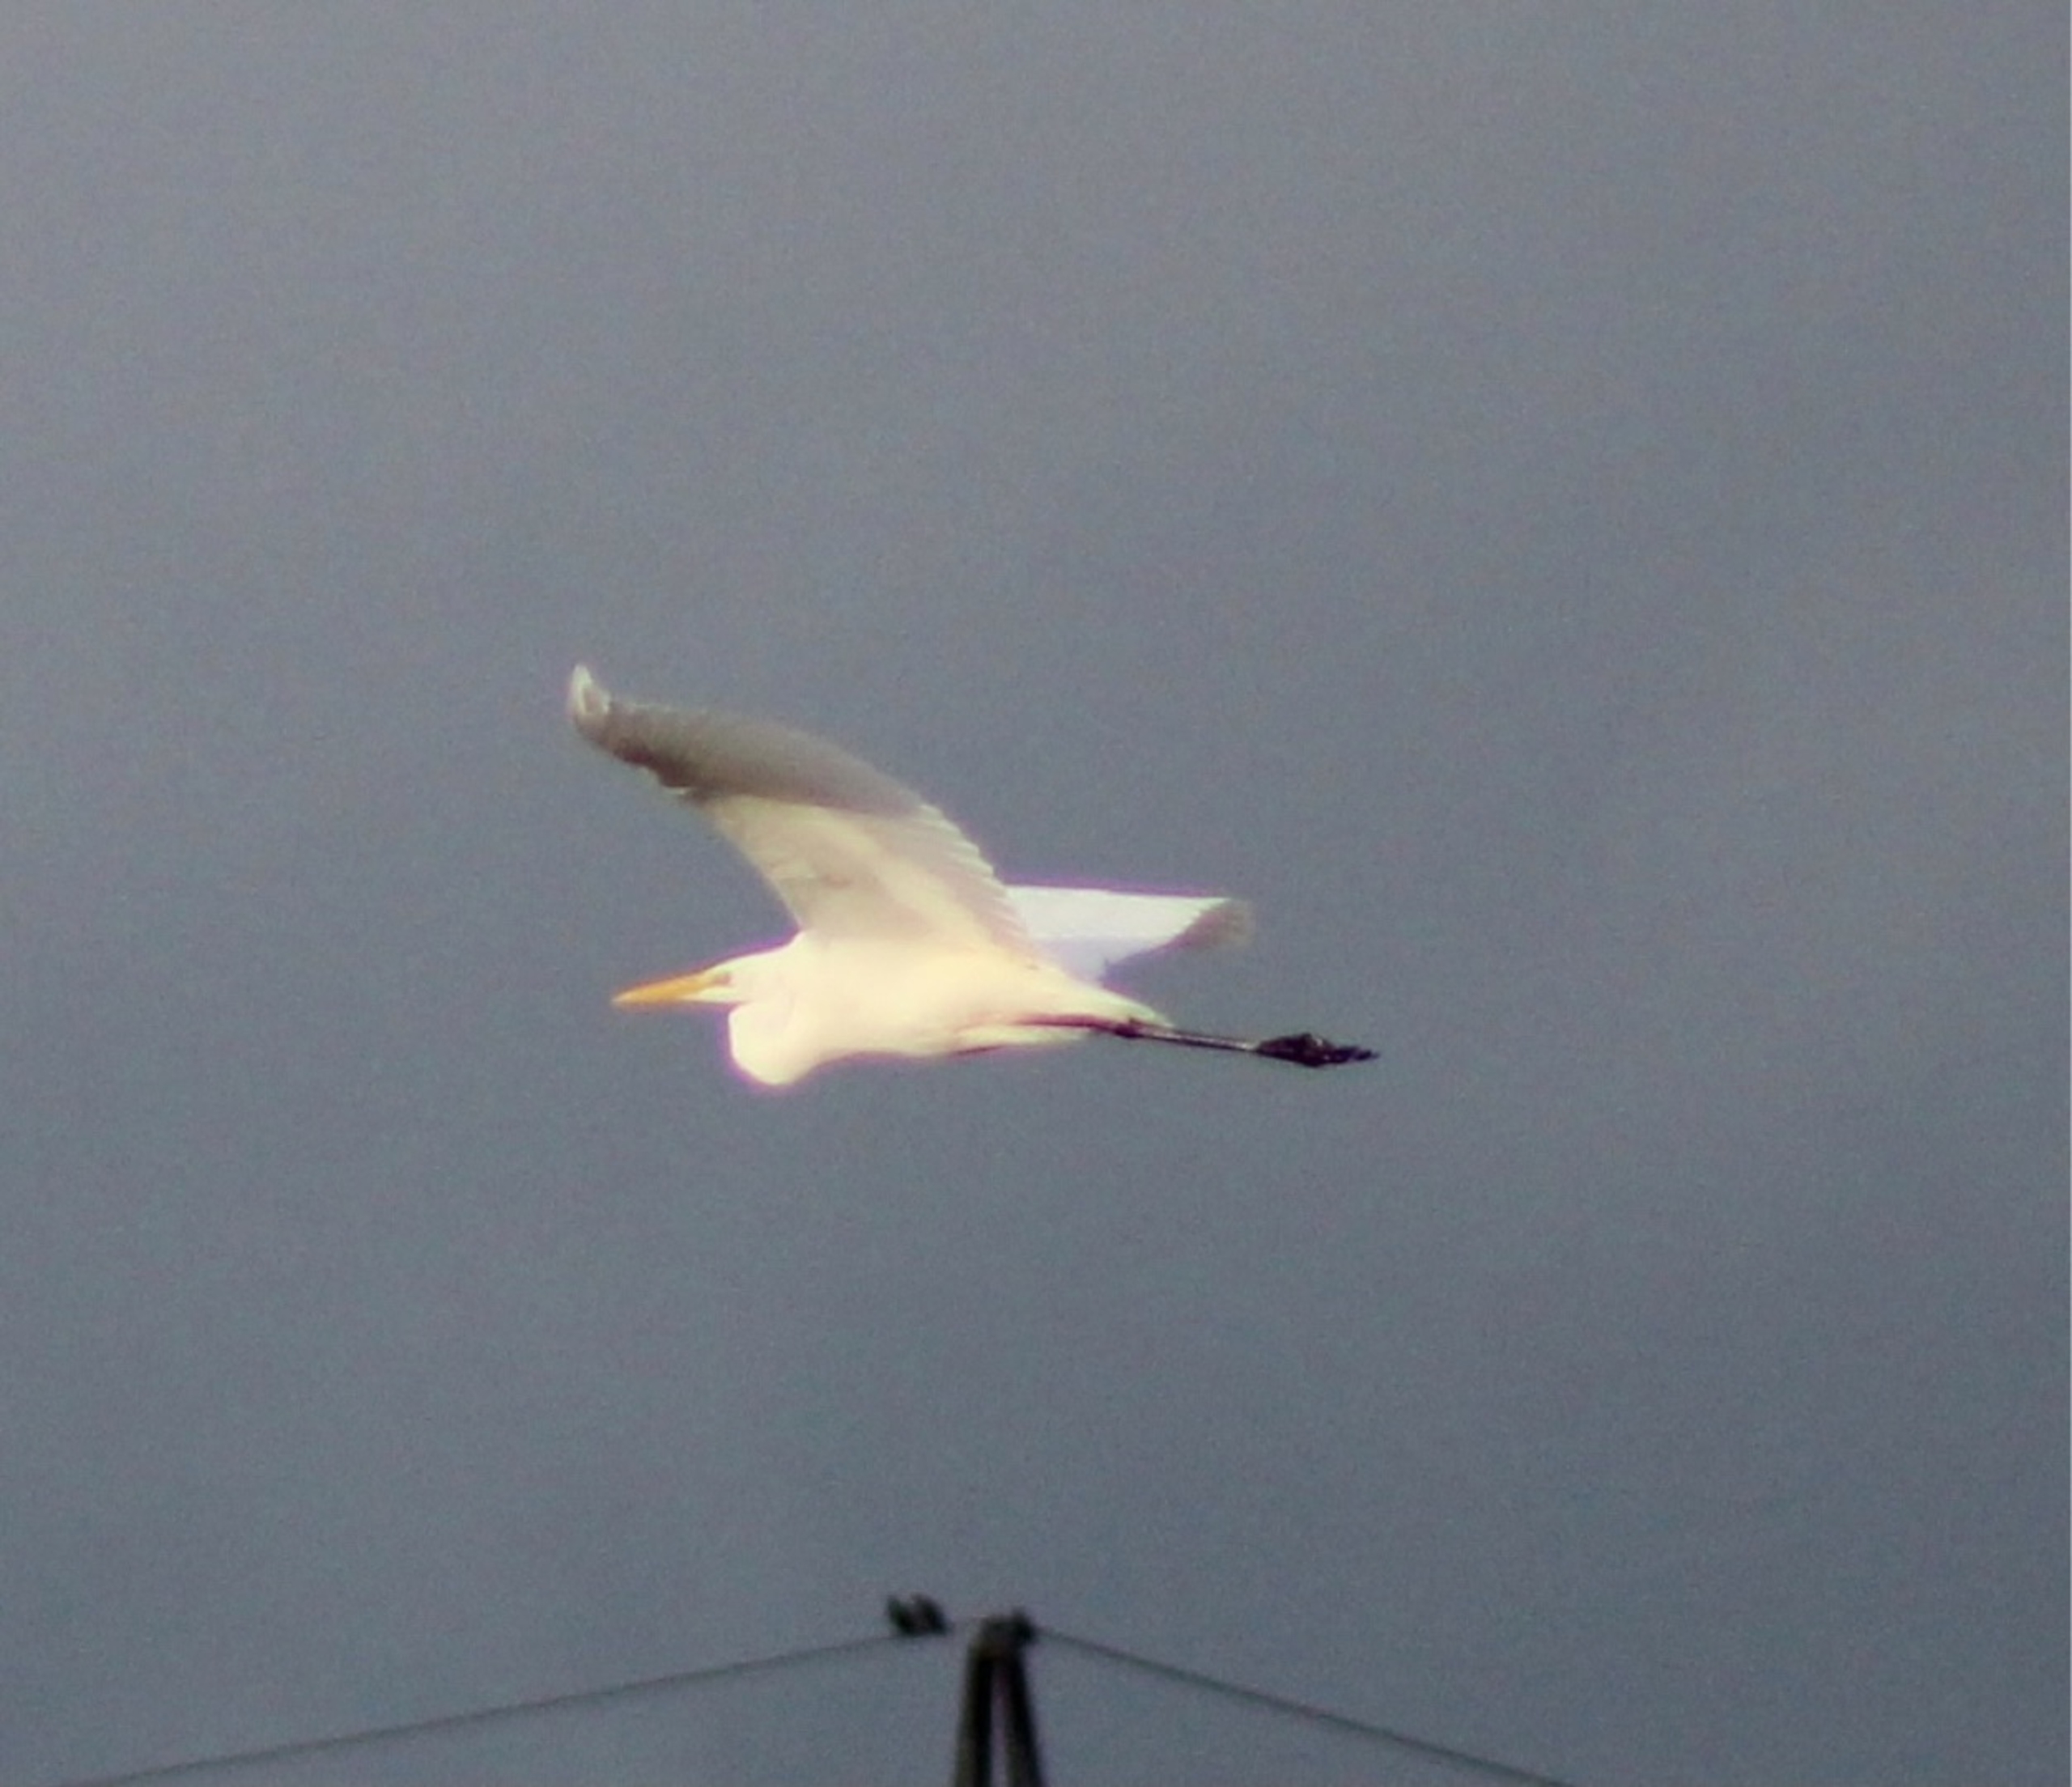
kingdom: Animalia
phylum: Chordata
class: Aves
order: Pelecaniformes
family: Ardeidae
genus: Ardea
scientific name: Ardea alba
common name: Sølvhejre
